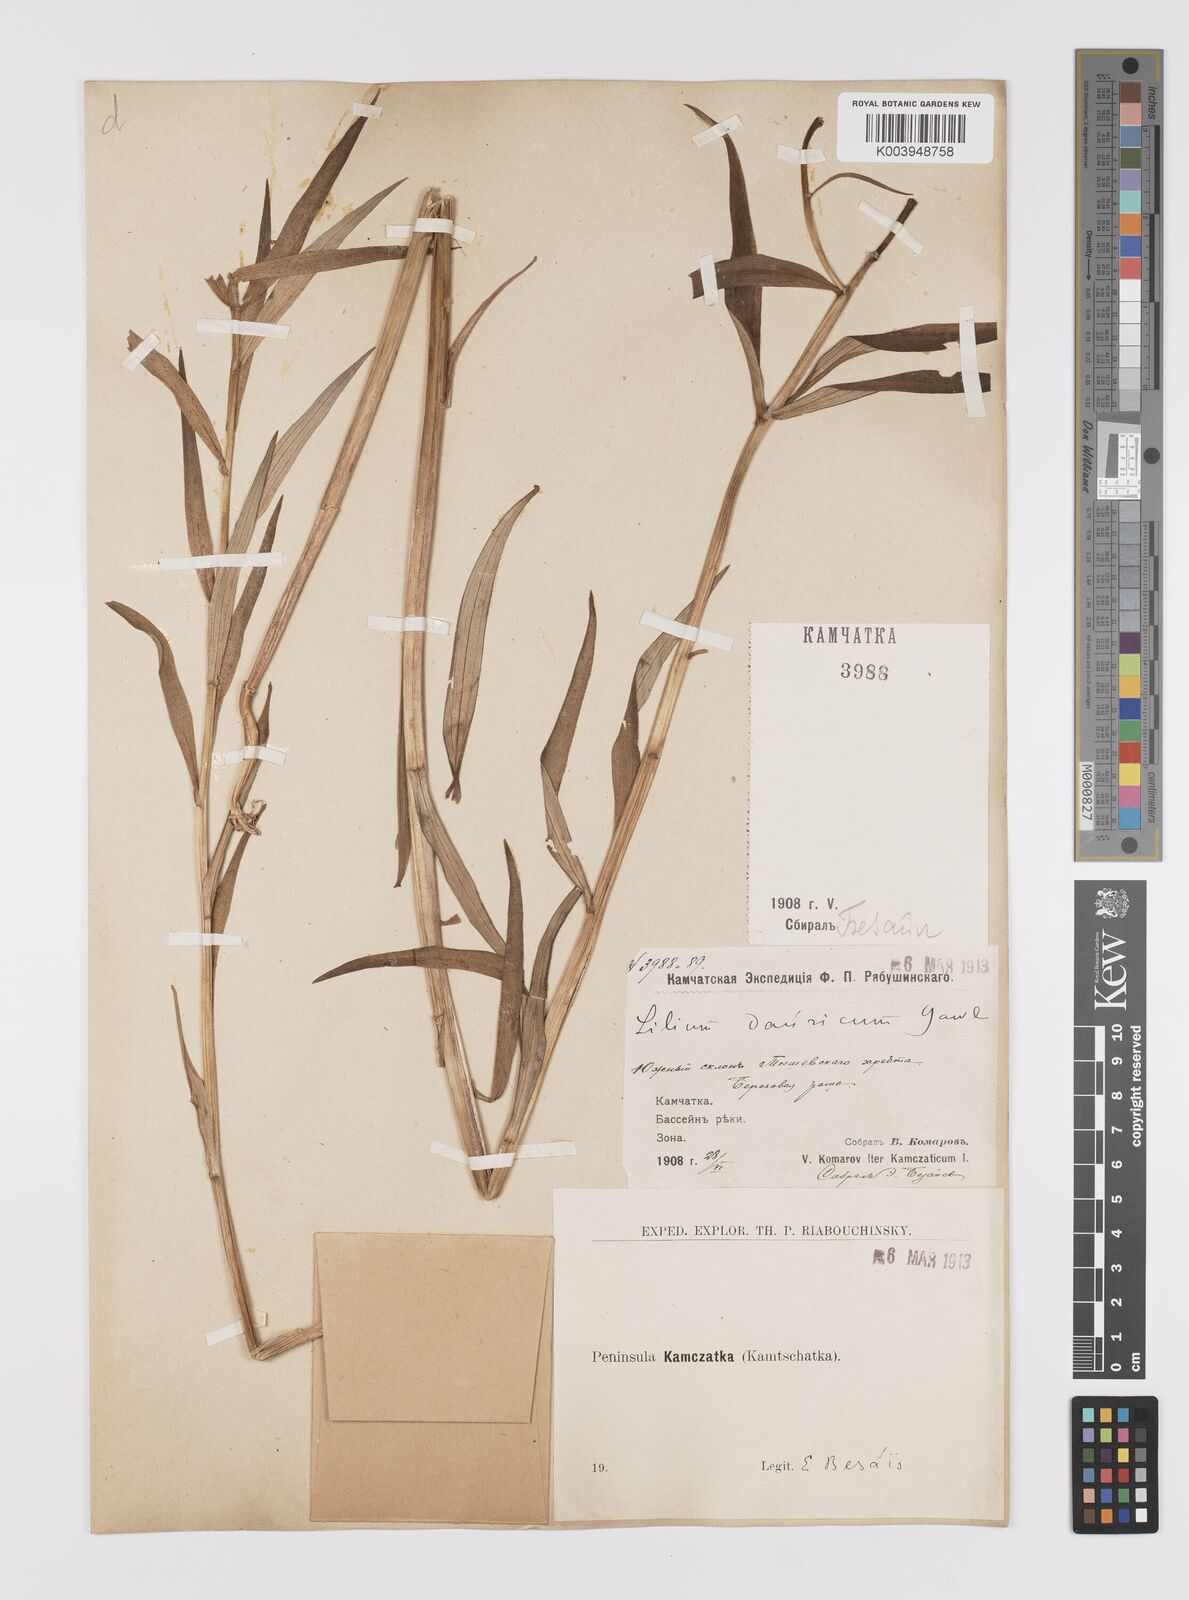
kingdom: Plantae
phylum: Tracheophyta
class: Liliopsida
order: Liliales
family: Liliaceae
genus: Lilium
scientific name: Lilium pensylvanicum
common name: Candlestick lily
